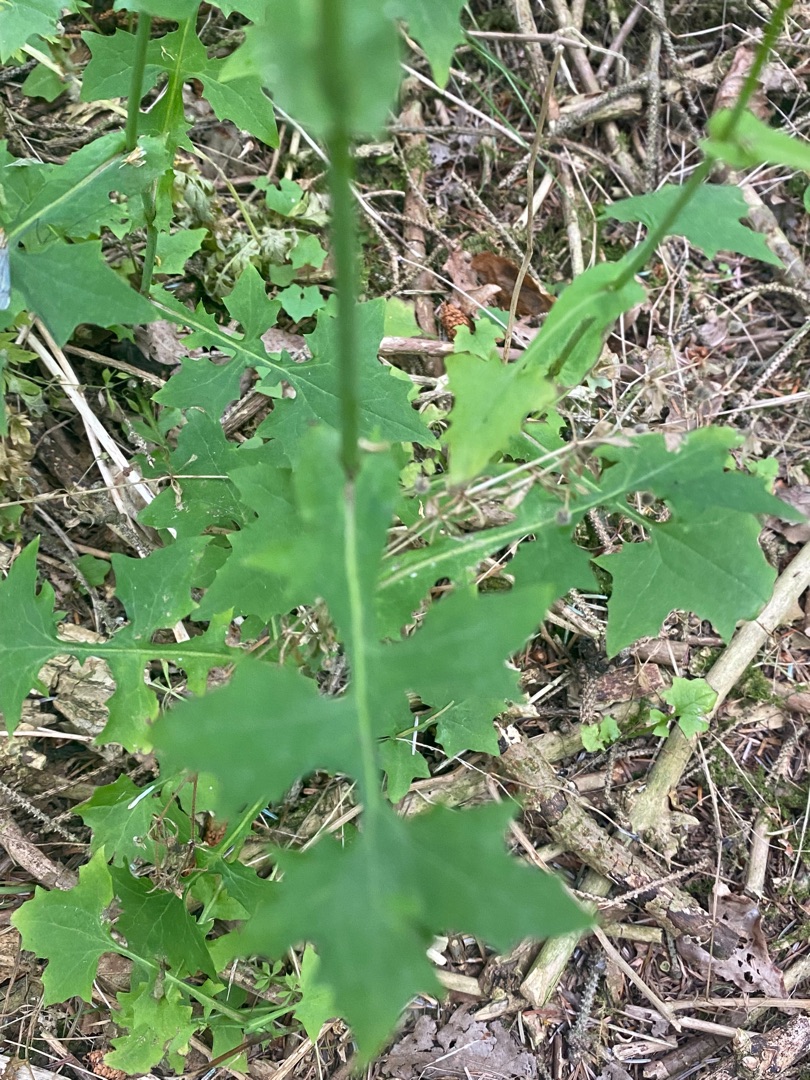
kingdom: Plantae
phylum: Tracheophyta
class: Magnoliopsida
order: Asterales
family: Asteraceae
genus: Mycelis
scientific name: Mycelis muralis
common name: Skov-salat
